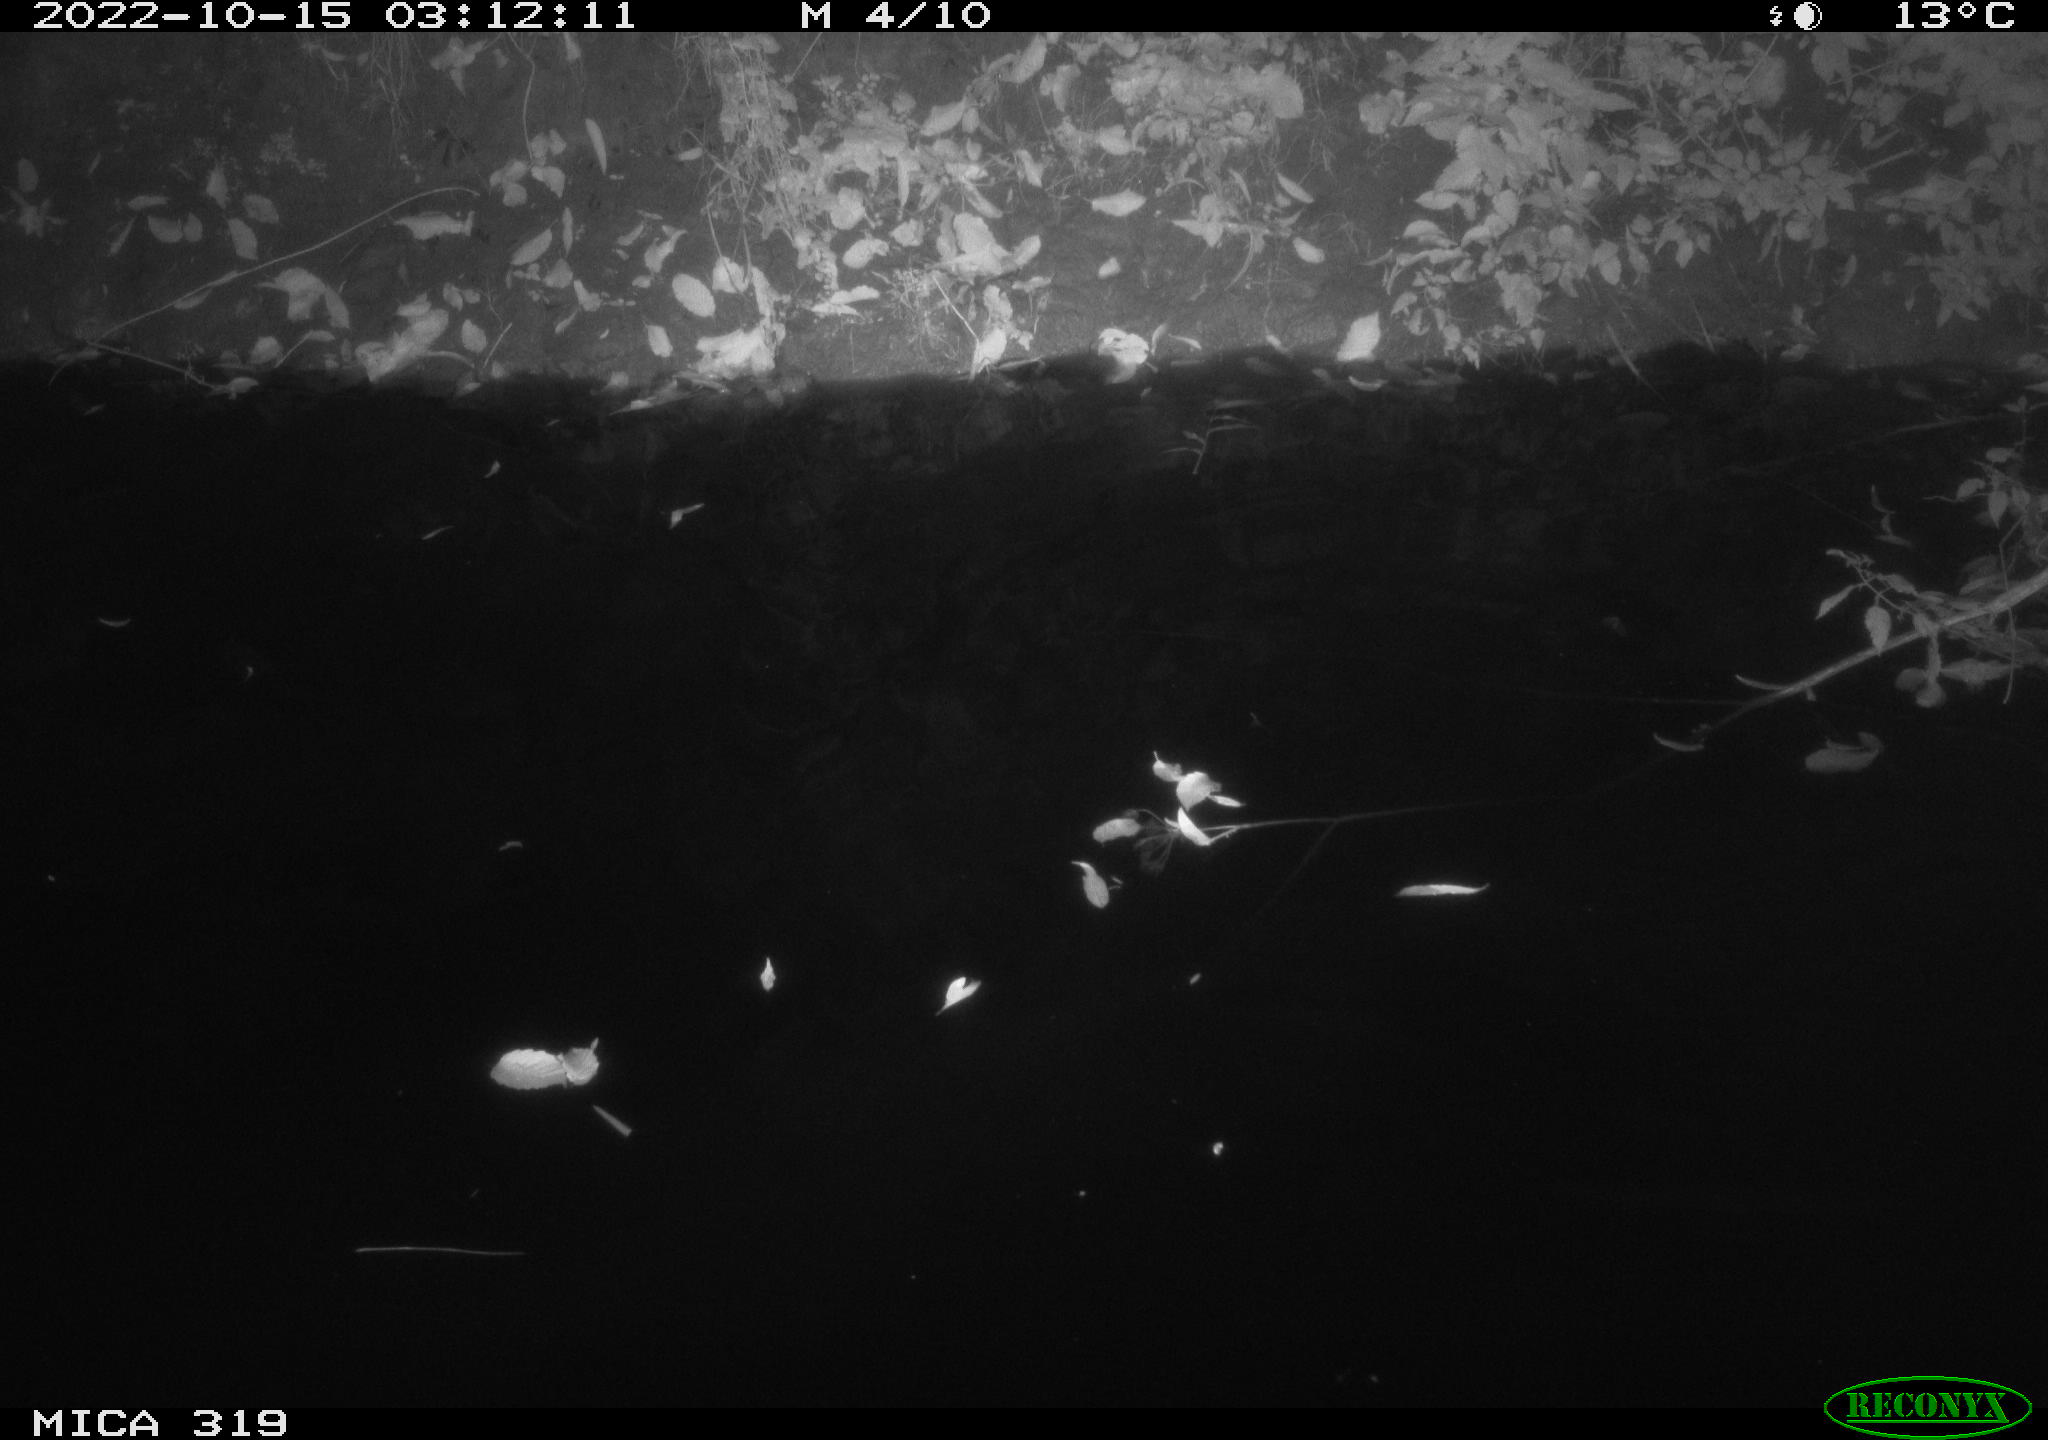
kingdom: Animalia
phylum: Chordata
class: Aves
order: Anseriformes
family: Anatidae
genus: Anas
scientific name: Anas
